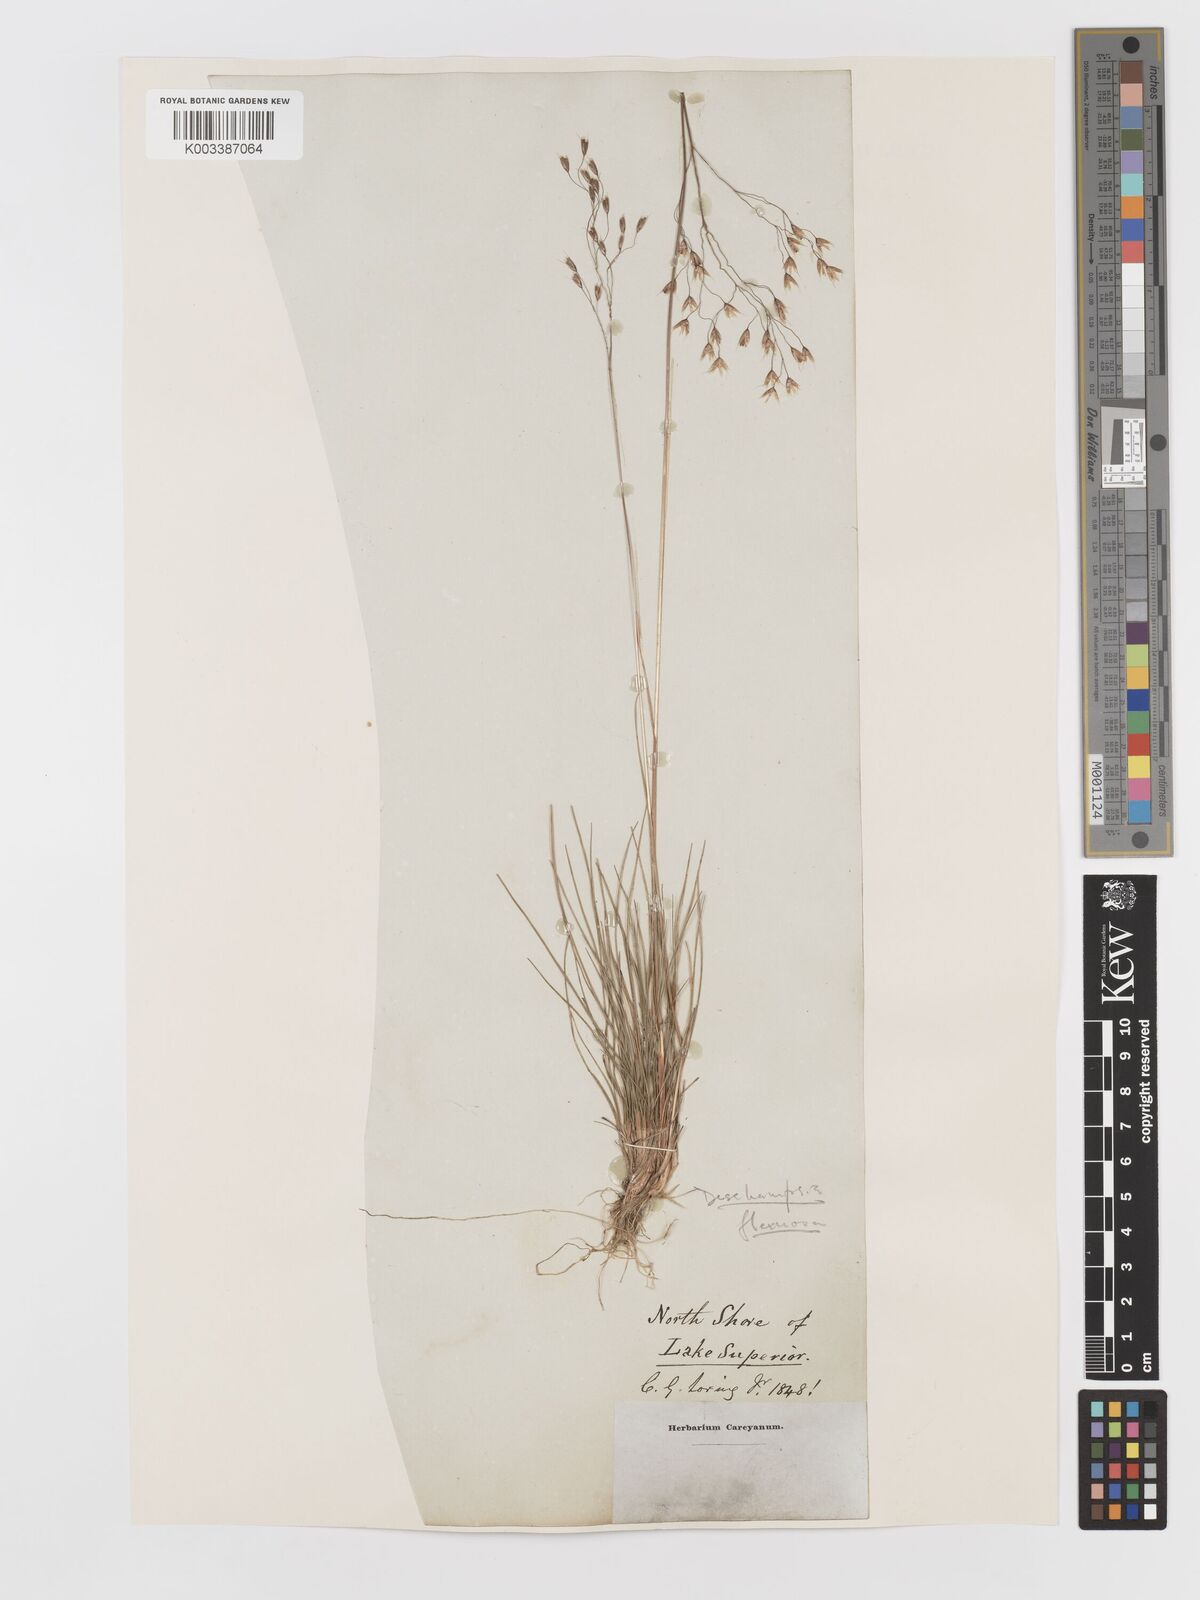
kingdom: Plantae
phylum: Tracheophyta
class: Liliopsida
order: Poales
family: Poaceae
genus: Avenella
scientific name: Avenella flexuosa
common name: Wavy hairgrass
